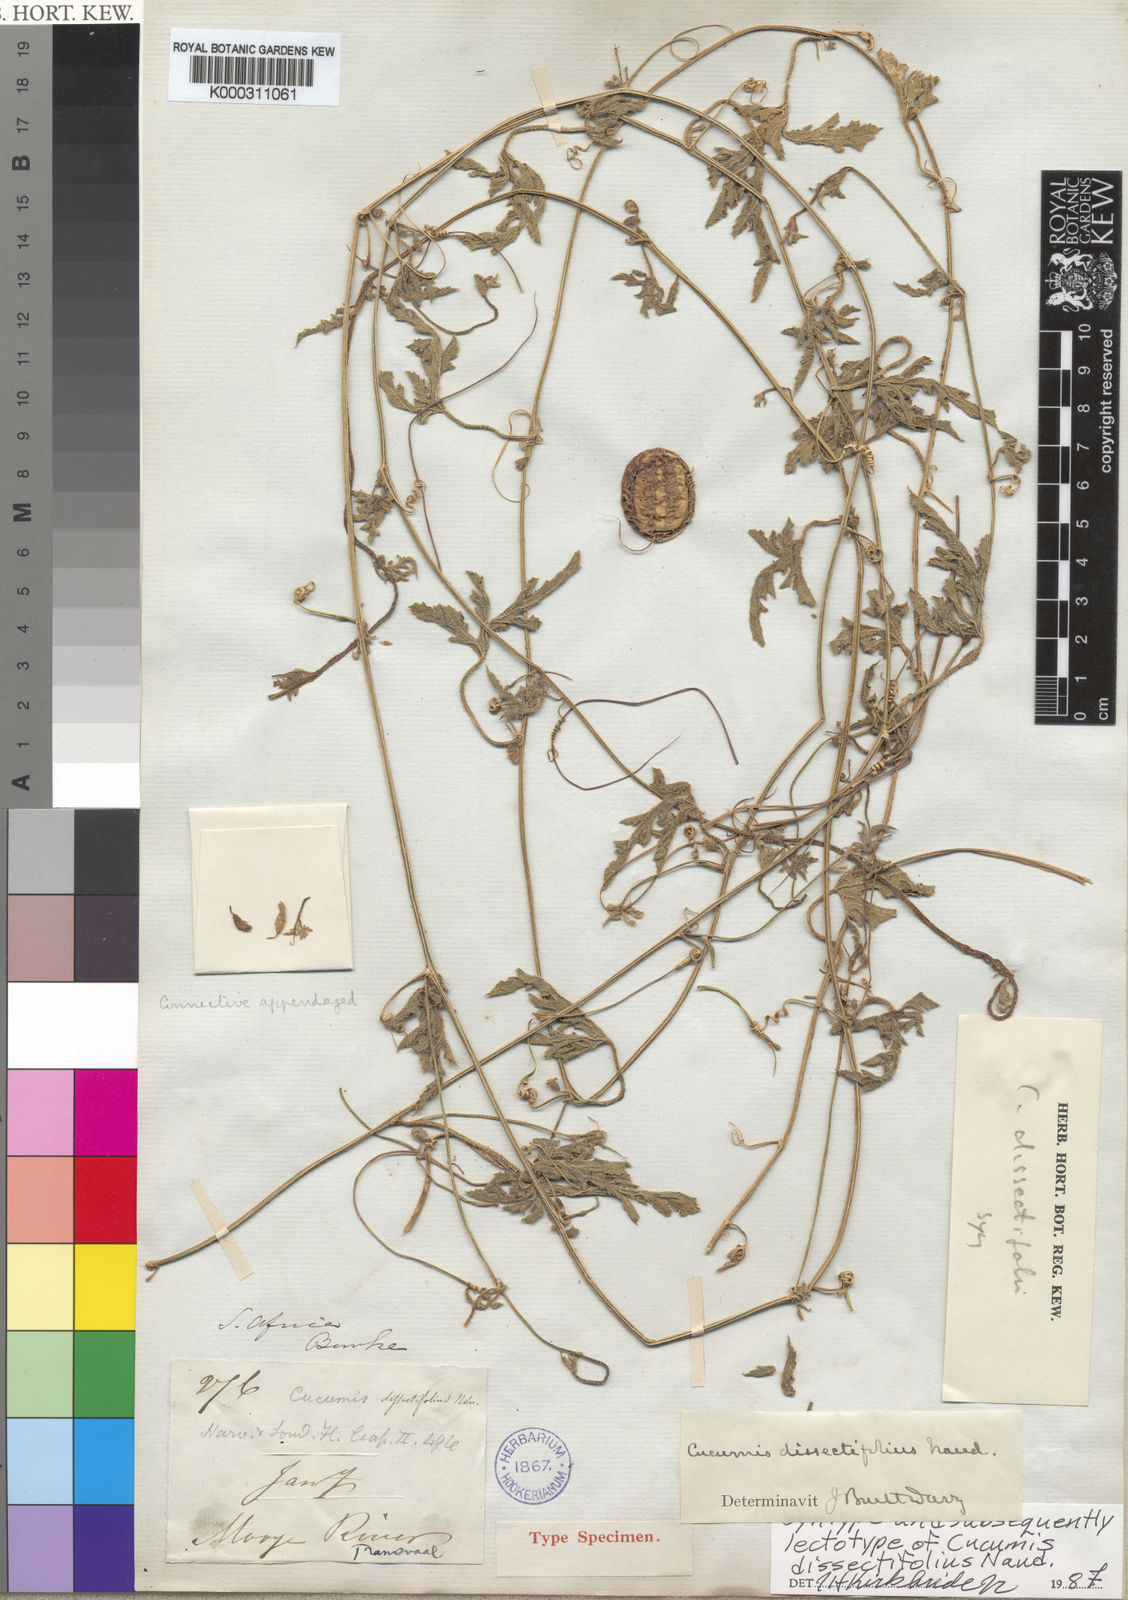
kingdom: Plantae
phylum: Tracheophyta
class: Magnoliopsida
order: Cucurbitales
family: Cucurbitaceae
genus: Cucumis
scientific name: Cucumis myriocarpus
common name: Gooseberry cucumber
